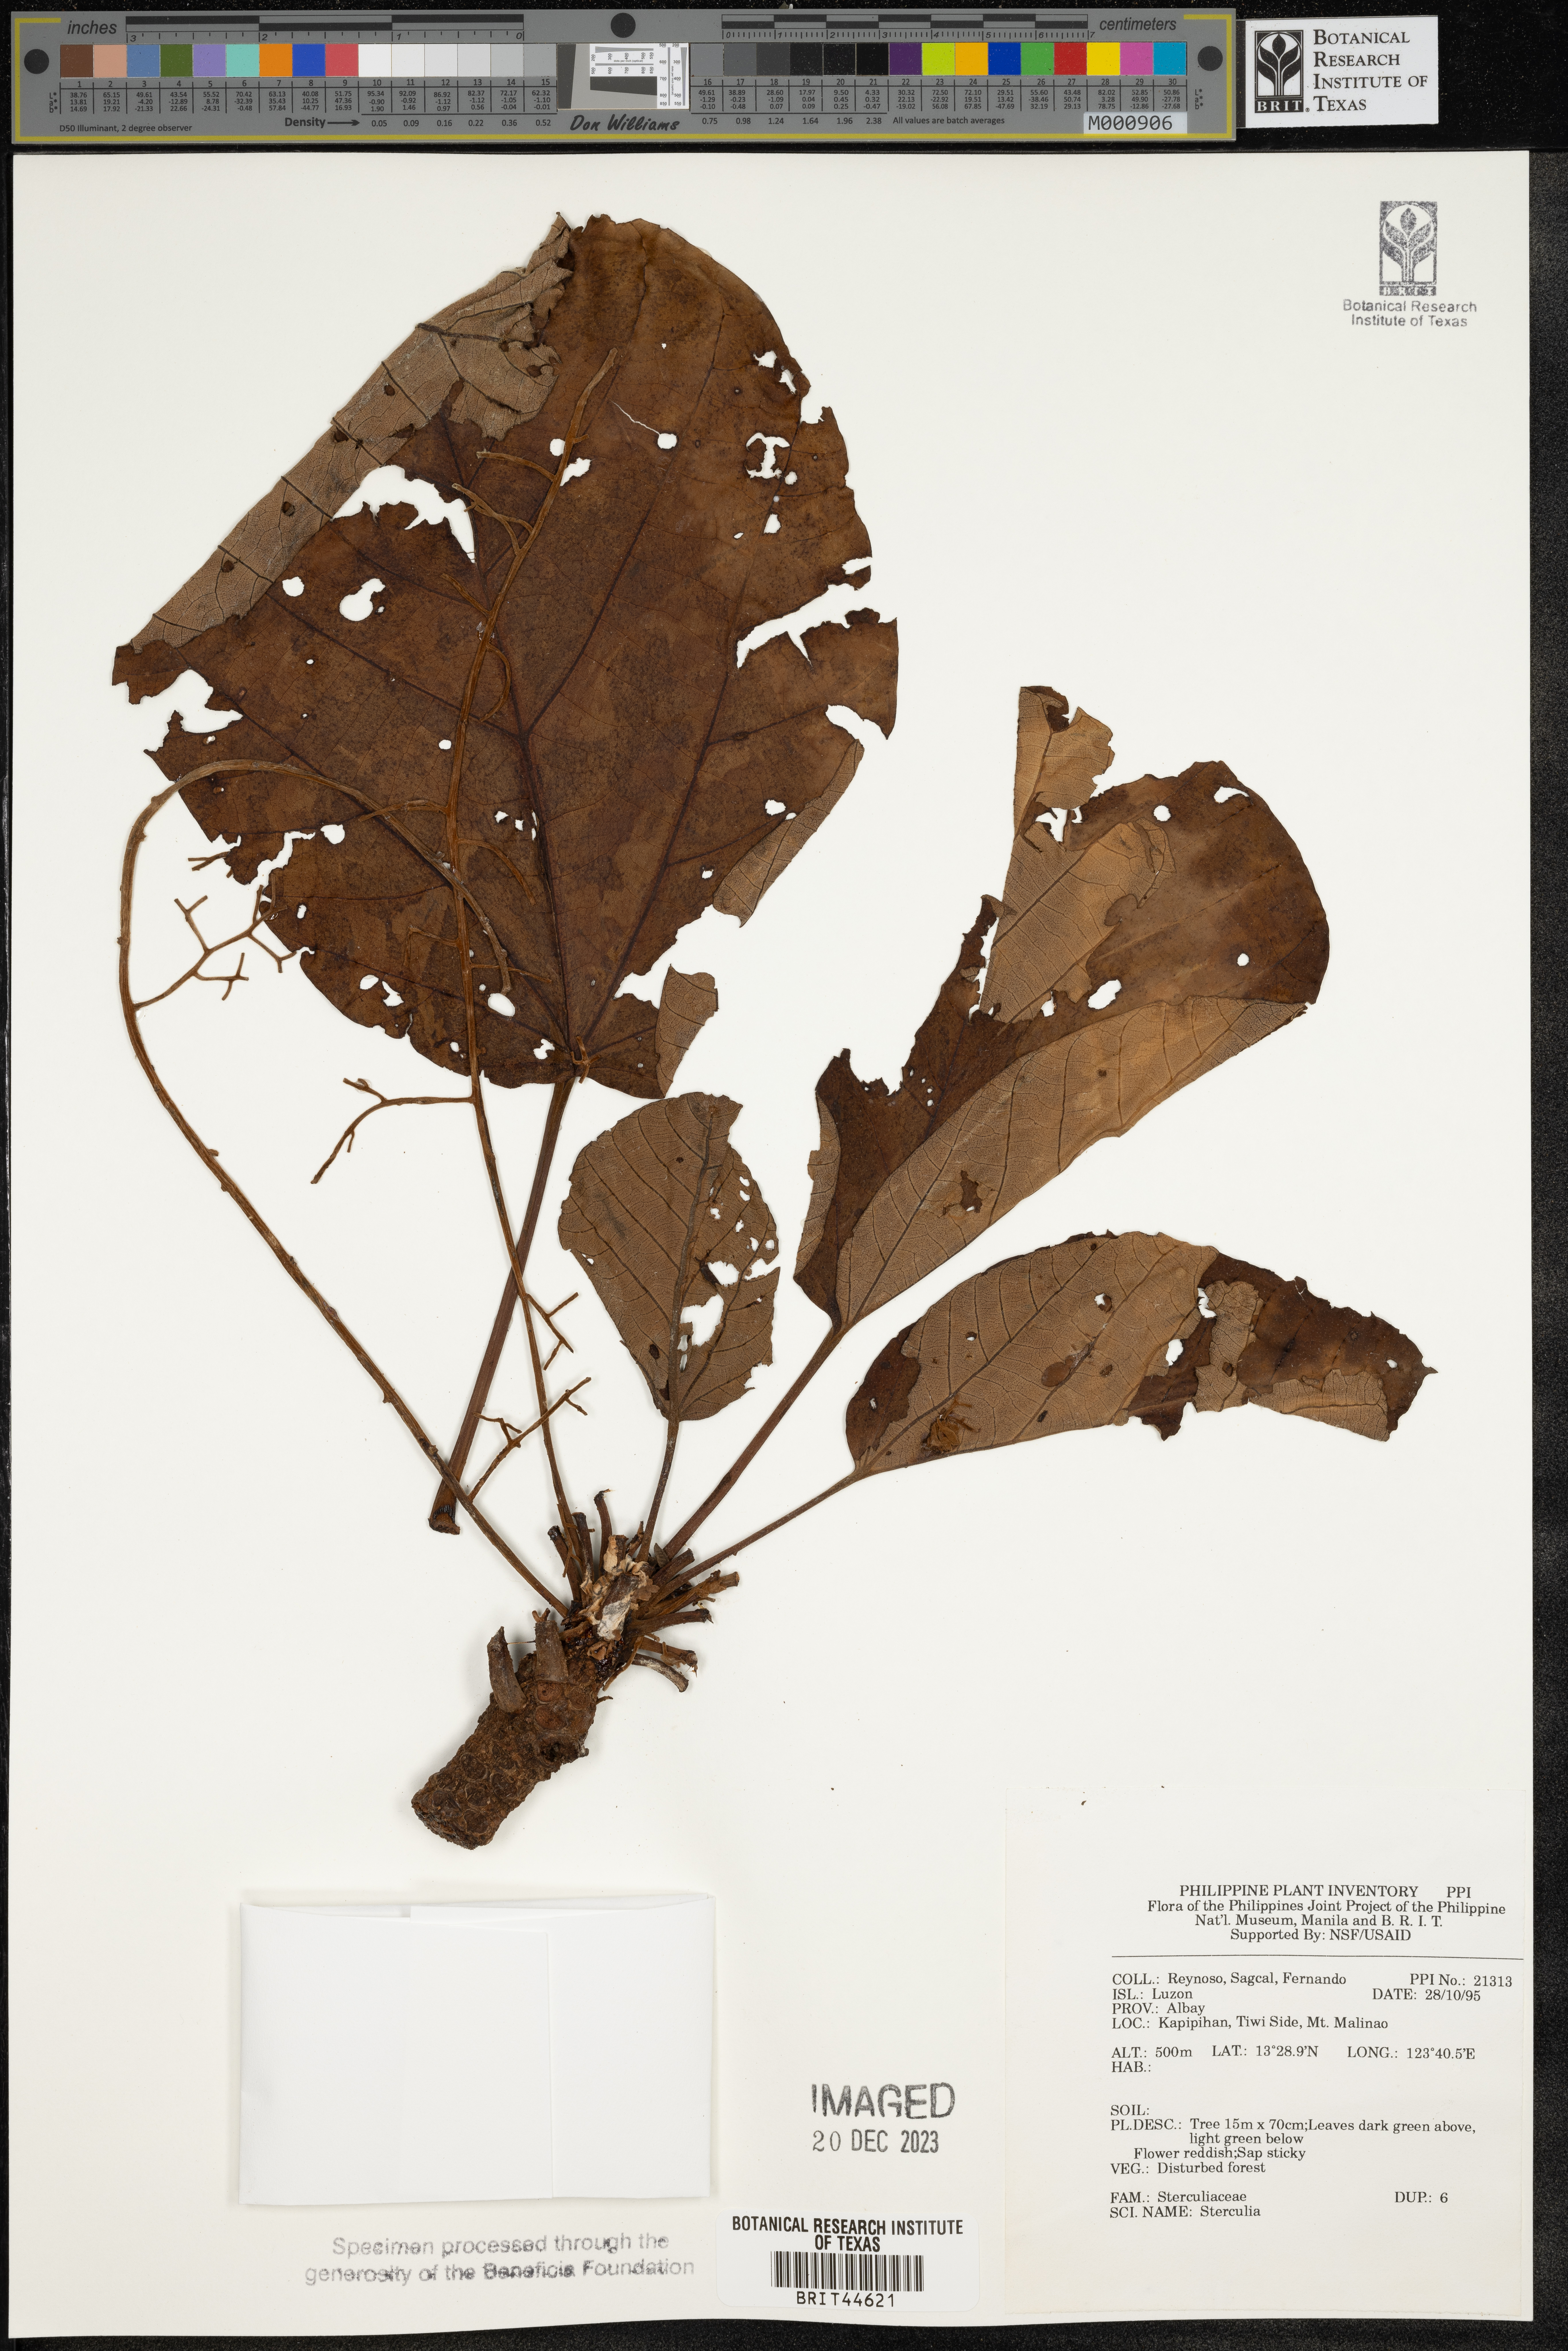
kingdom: Plantae
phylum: Tracheophyta
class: Magnoliopsida
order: Malvales
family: Malvaceae
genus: Sterculia
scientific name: Sterculia
